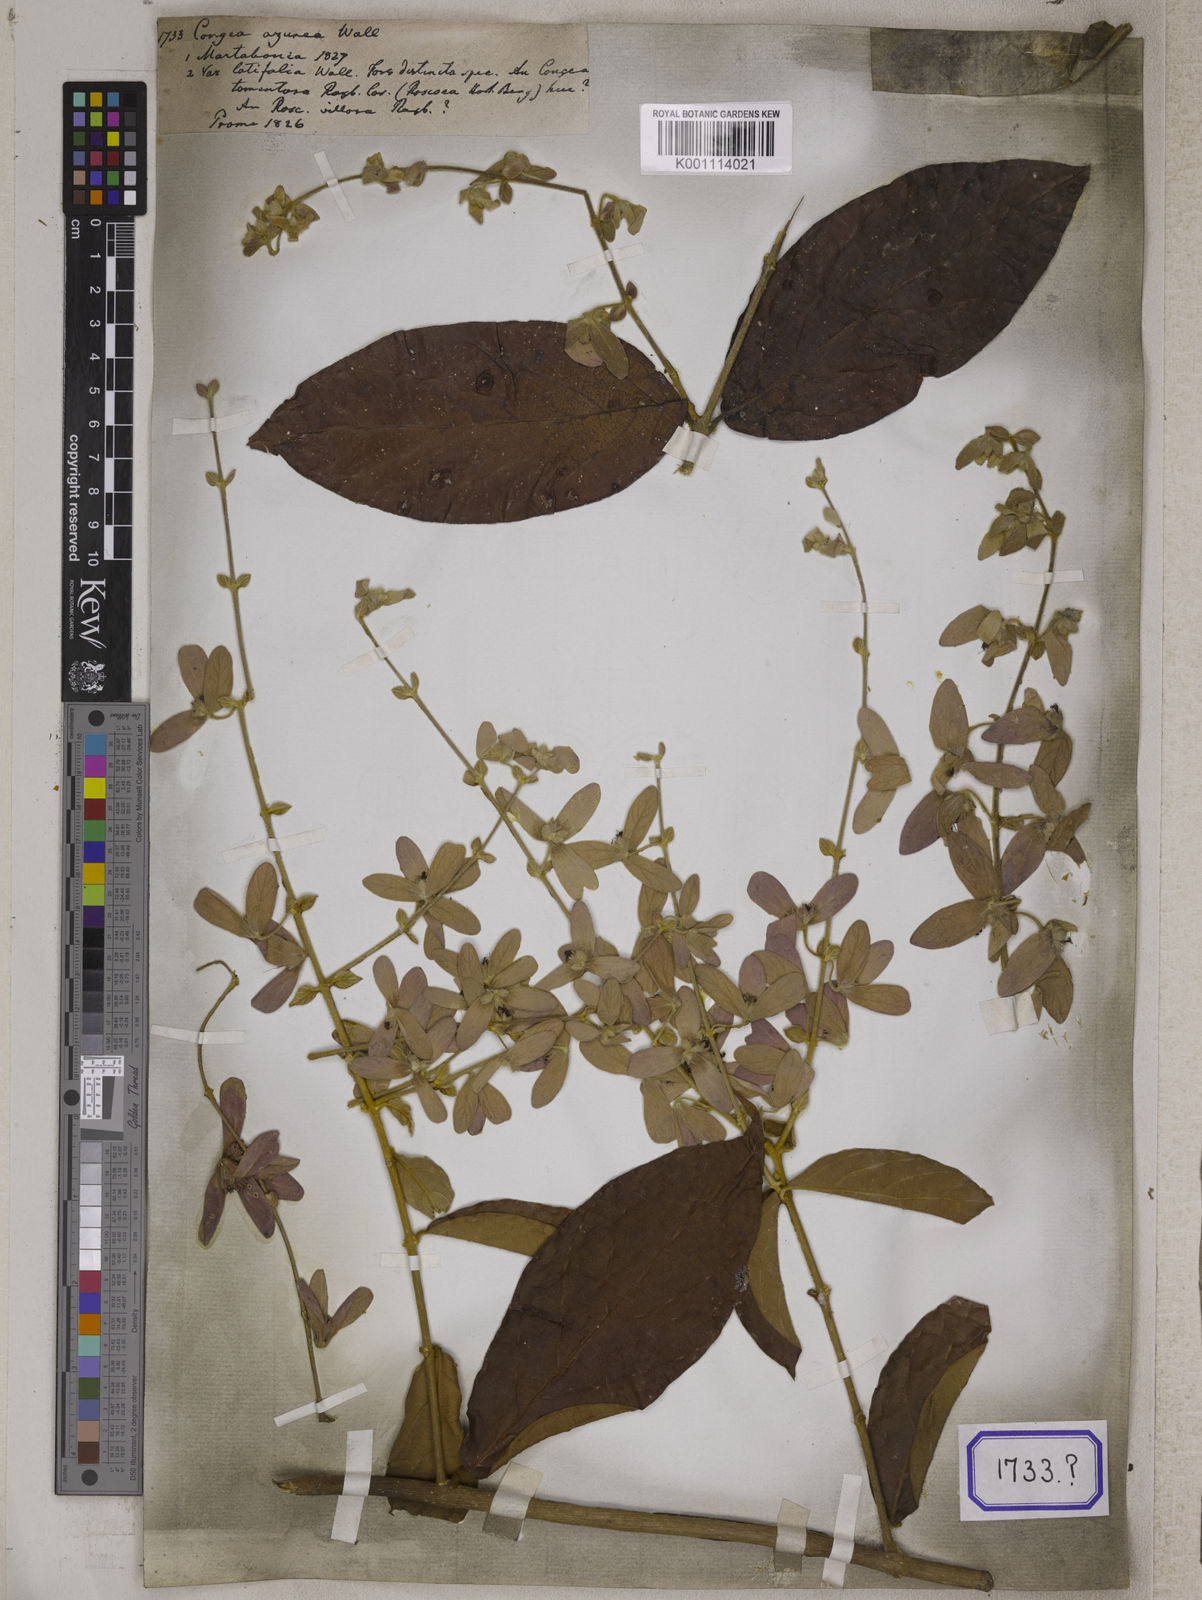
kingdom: Plantae
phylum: Tracheophyta
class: Magnoliopsida
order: Lamiales
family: Lamiaceae
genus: Congea
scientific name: Congea tomentosa
